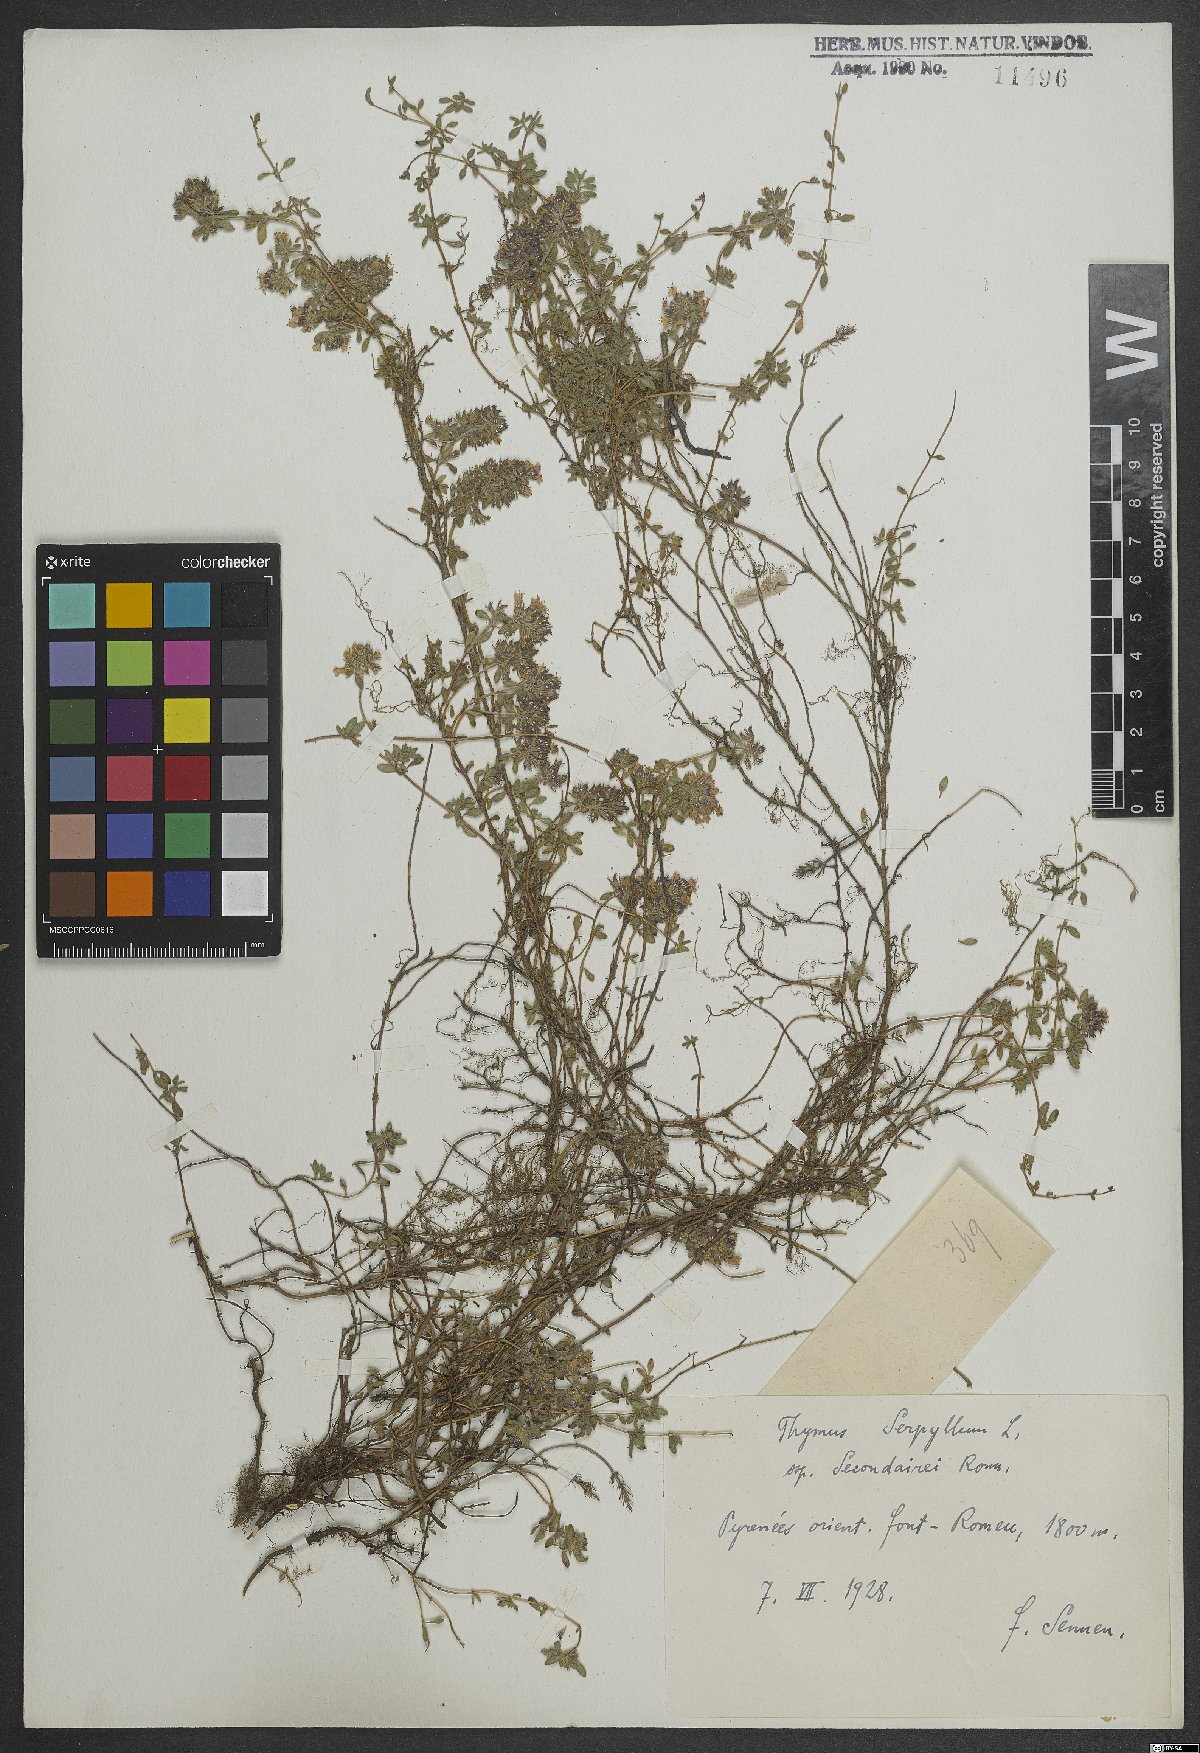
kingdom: Plantae
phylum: Tracheophyta
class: Magnoliopsida
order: Lamiales
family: Lamiaceae
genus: Thymus
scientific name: Thymus serpyllum
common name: Breckland thyme
